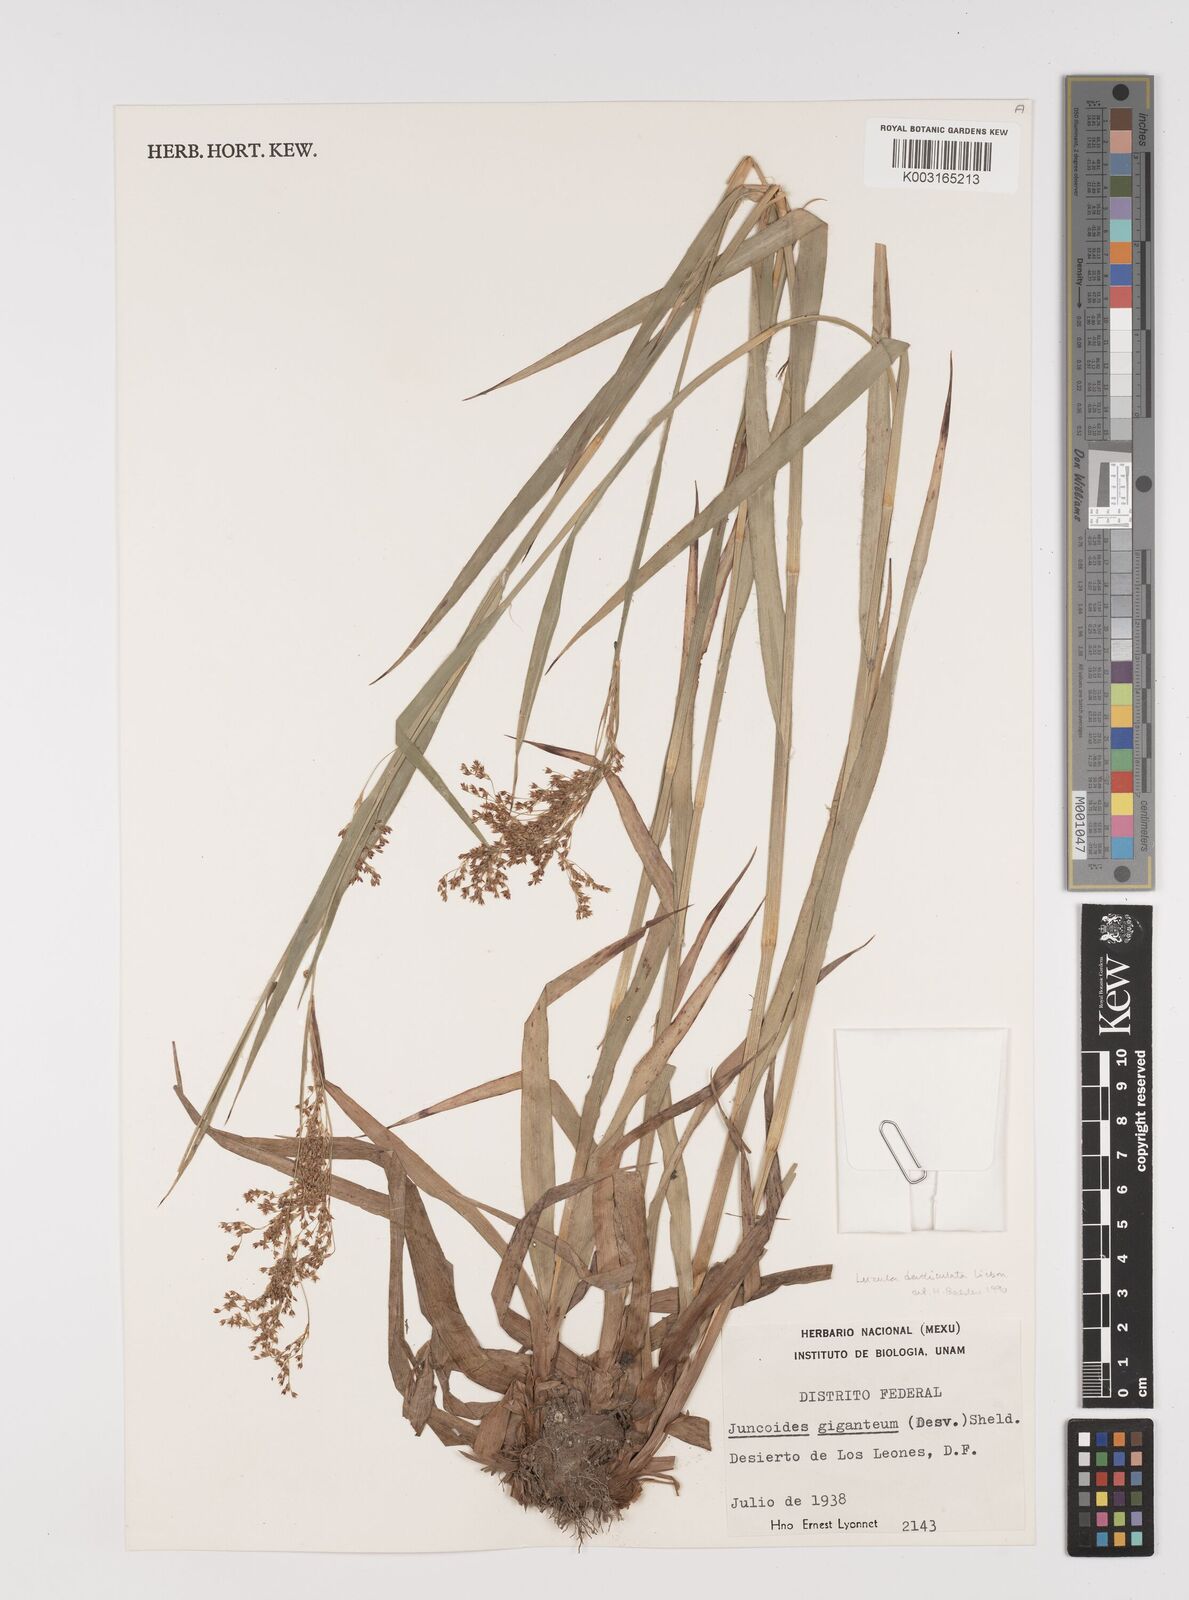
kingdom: Plantae
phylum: Tracheophyta
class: Liliopsida
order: Poales
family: Juncaceae
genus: Luzula
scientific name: Luzula gigantea
